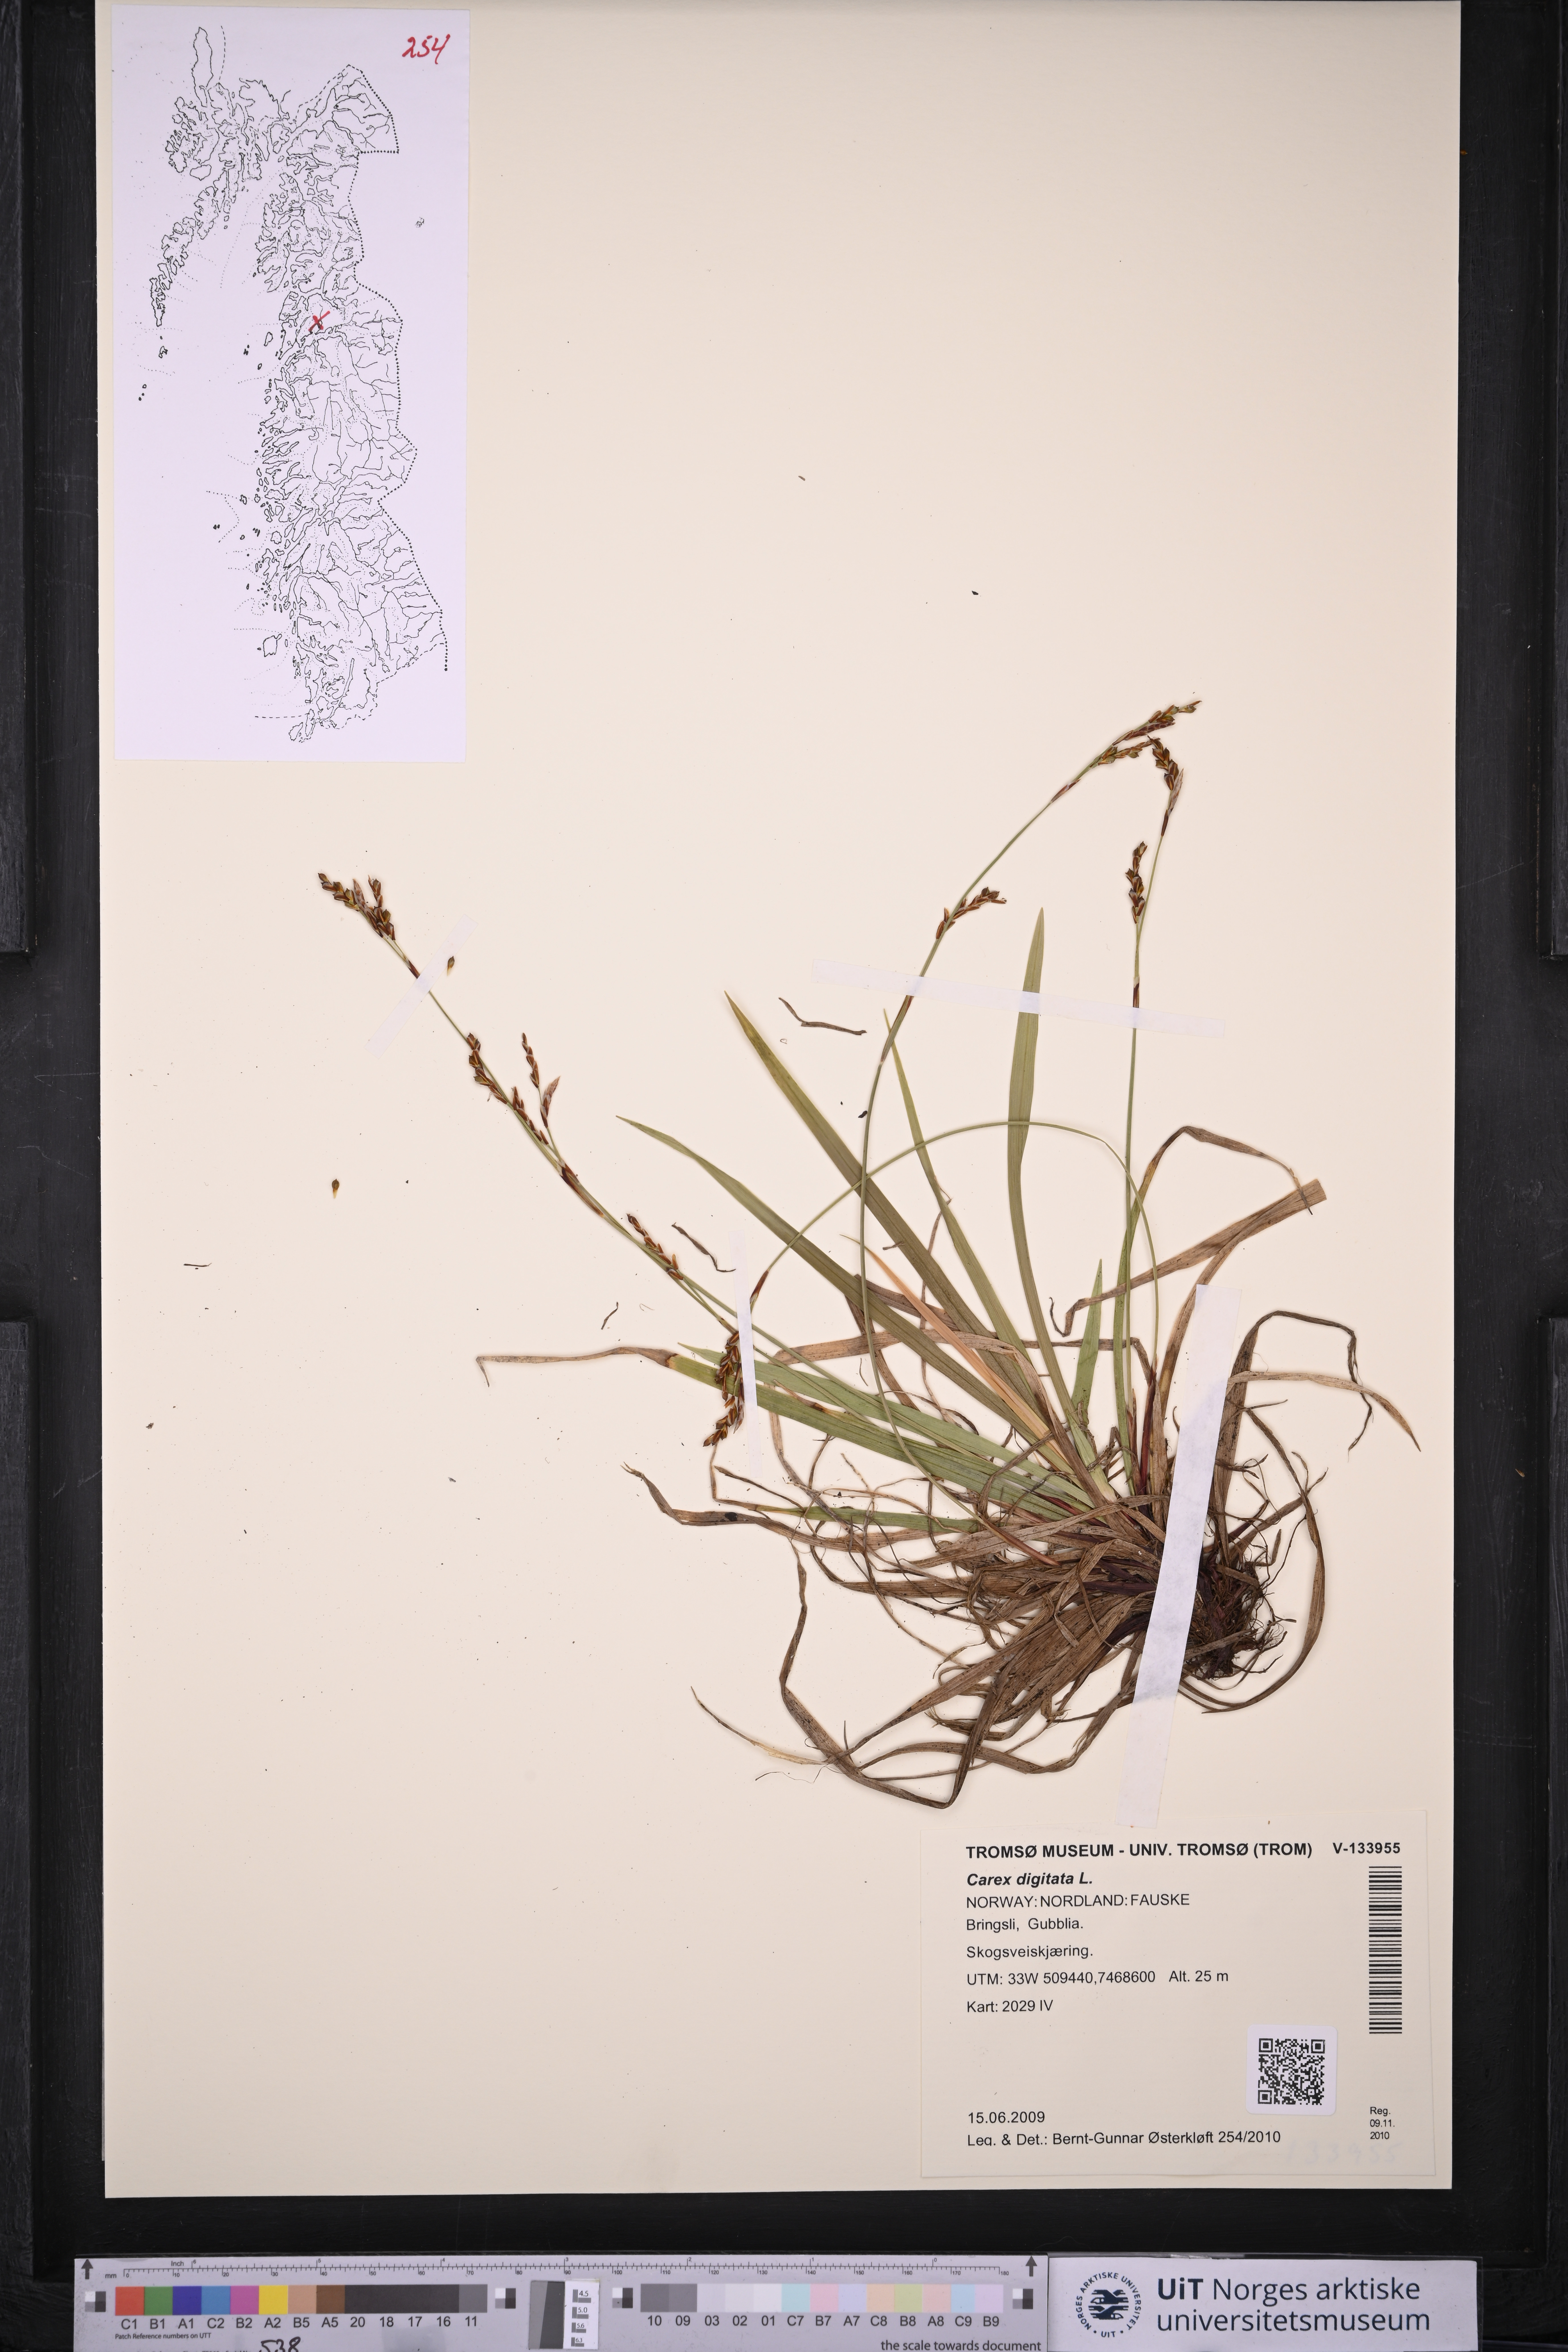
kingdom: Plantae
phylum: Tracheophyta
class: Liliopsida
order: Poales
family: Cyperaceae
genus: Carex
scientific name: Carex digitata
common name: Fingered sedge
